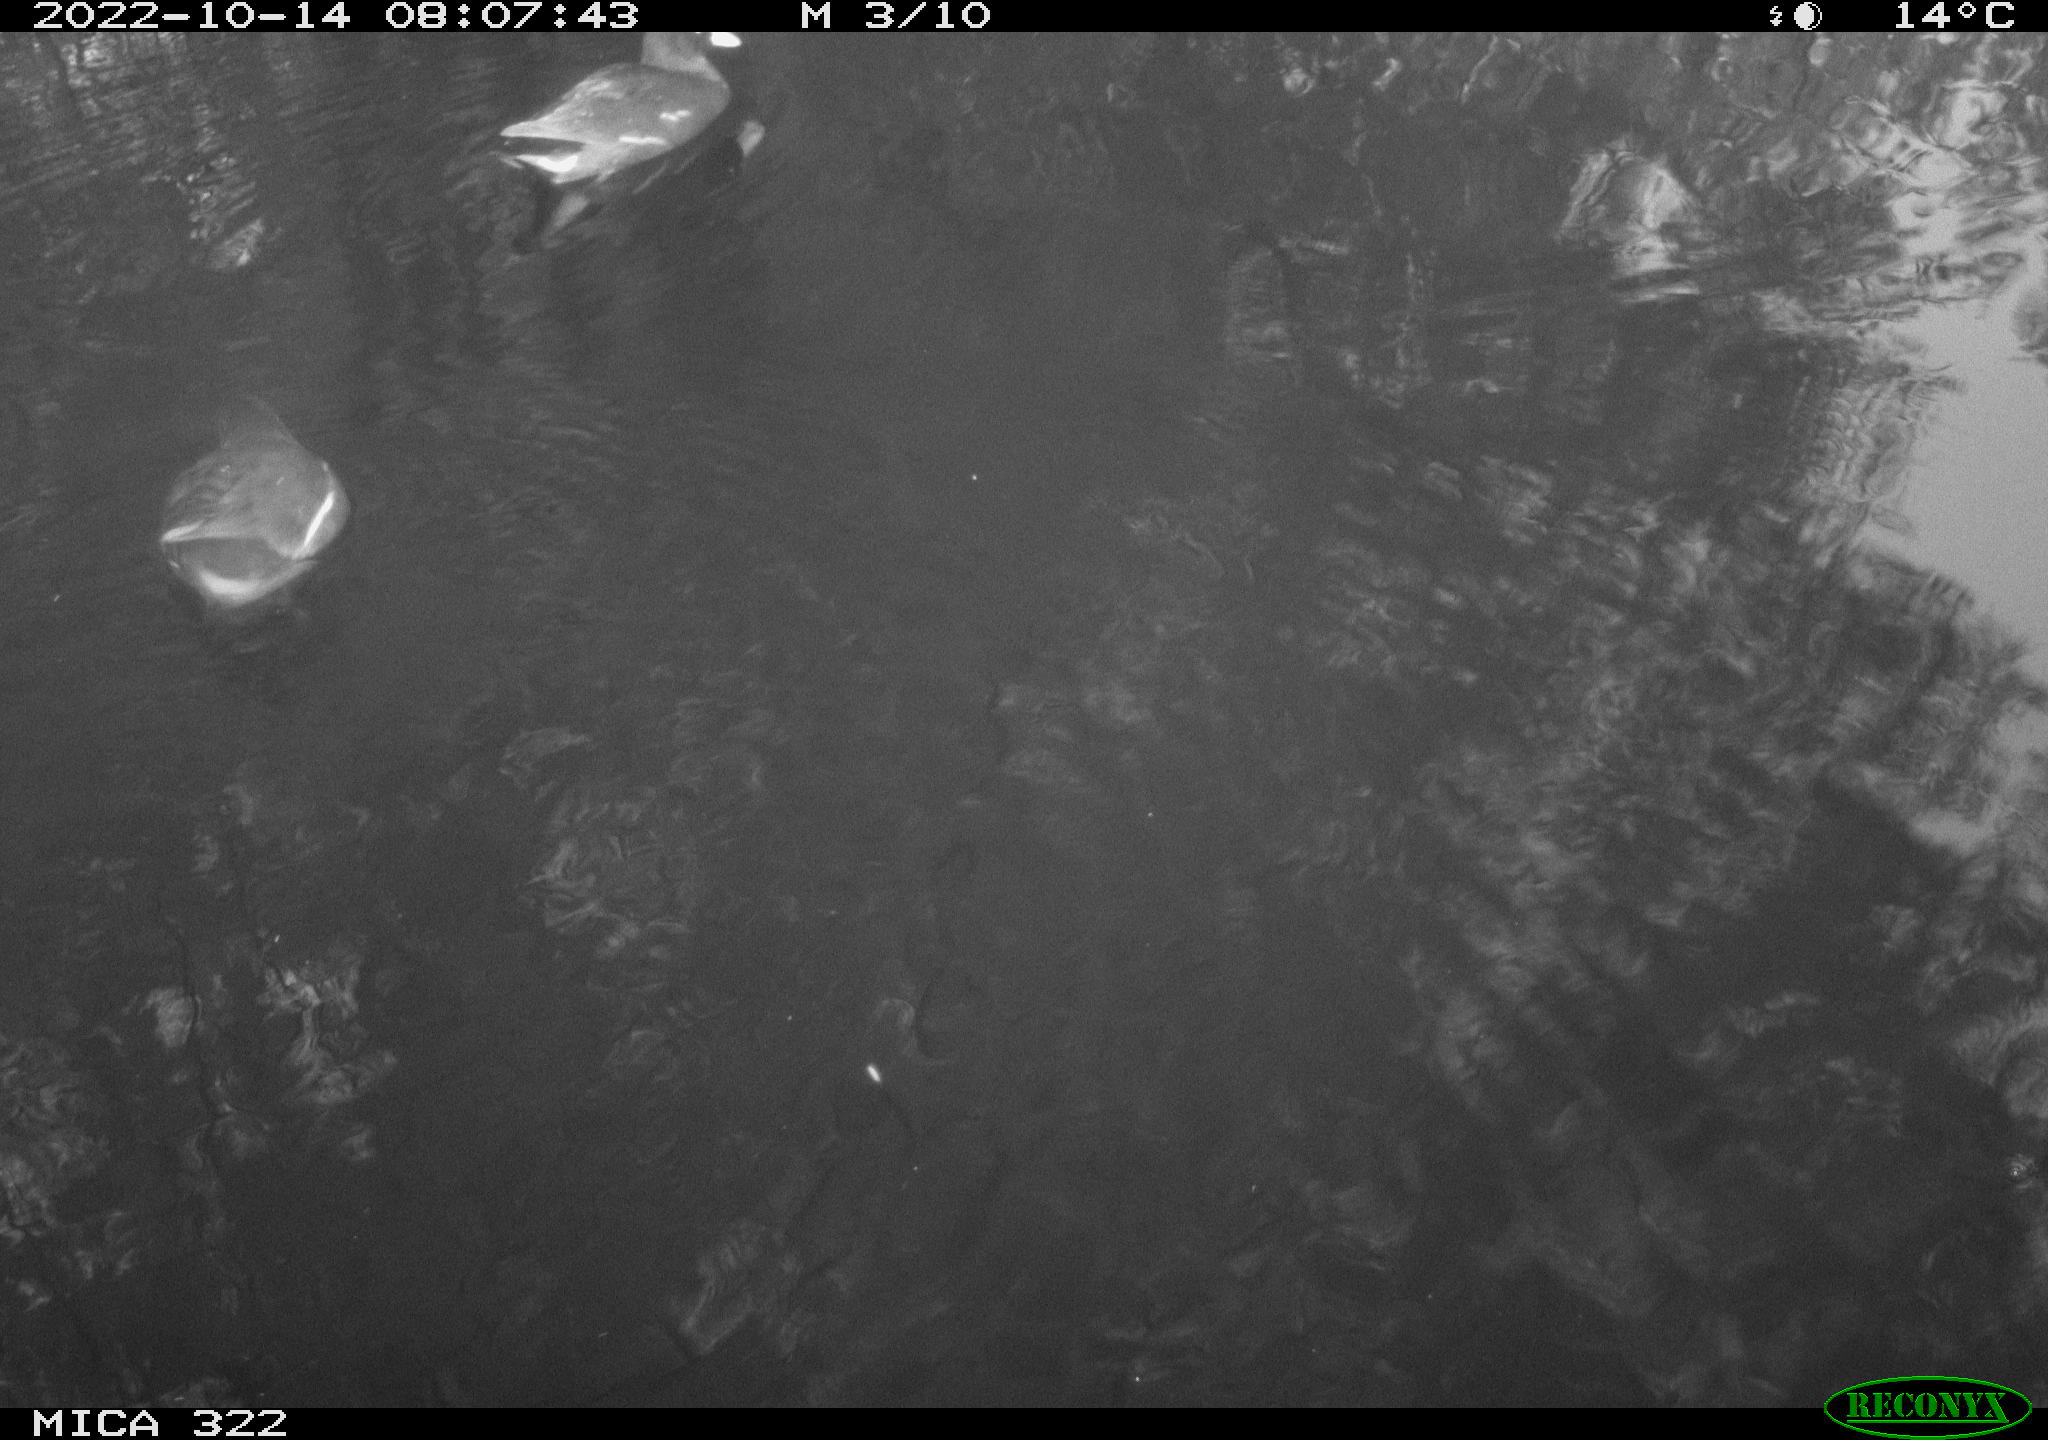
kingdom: Animalia
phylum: Chordata
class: Aves
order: Gruiformes
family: Rallidae
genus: Fulica
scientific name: Fulica atra
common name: Eurasian coot
